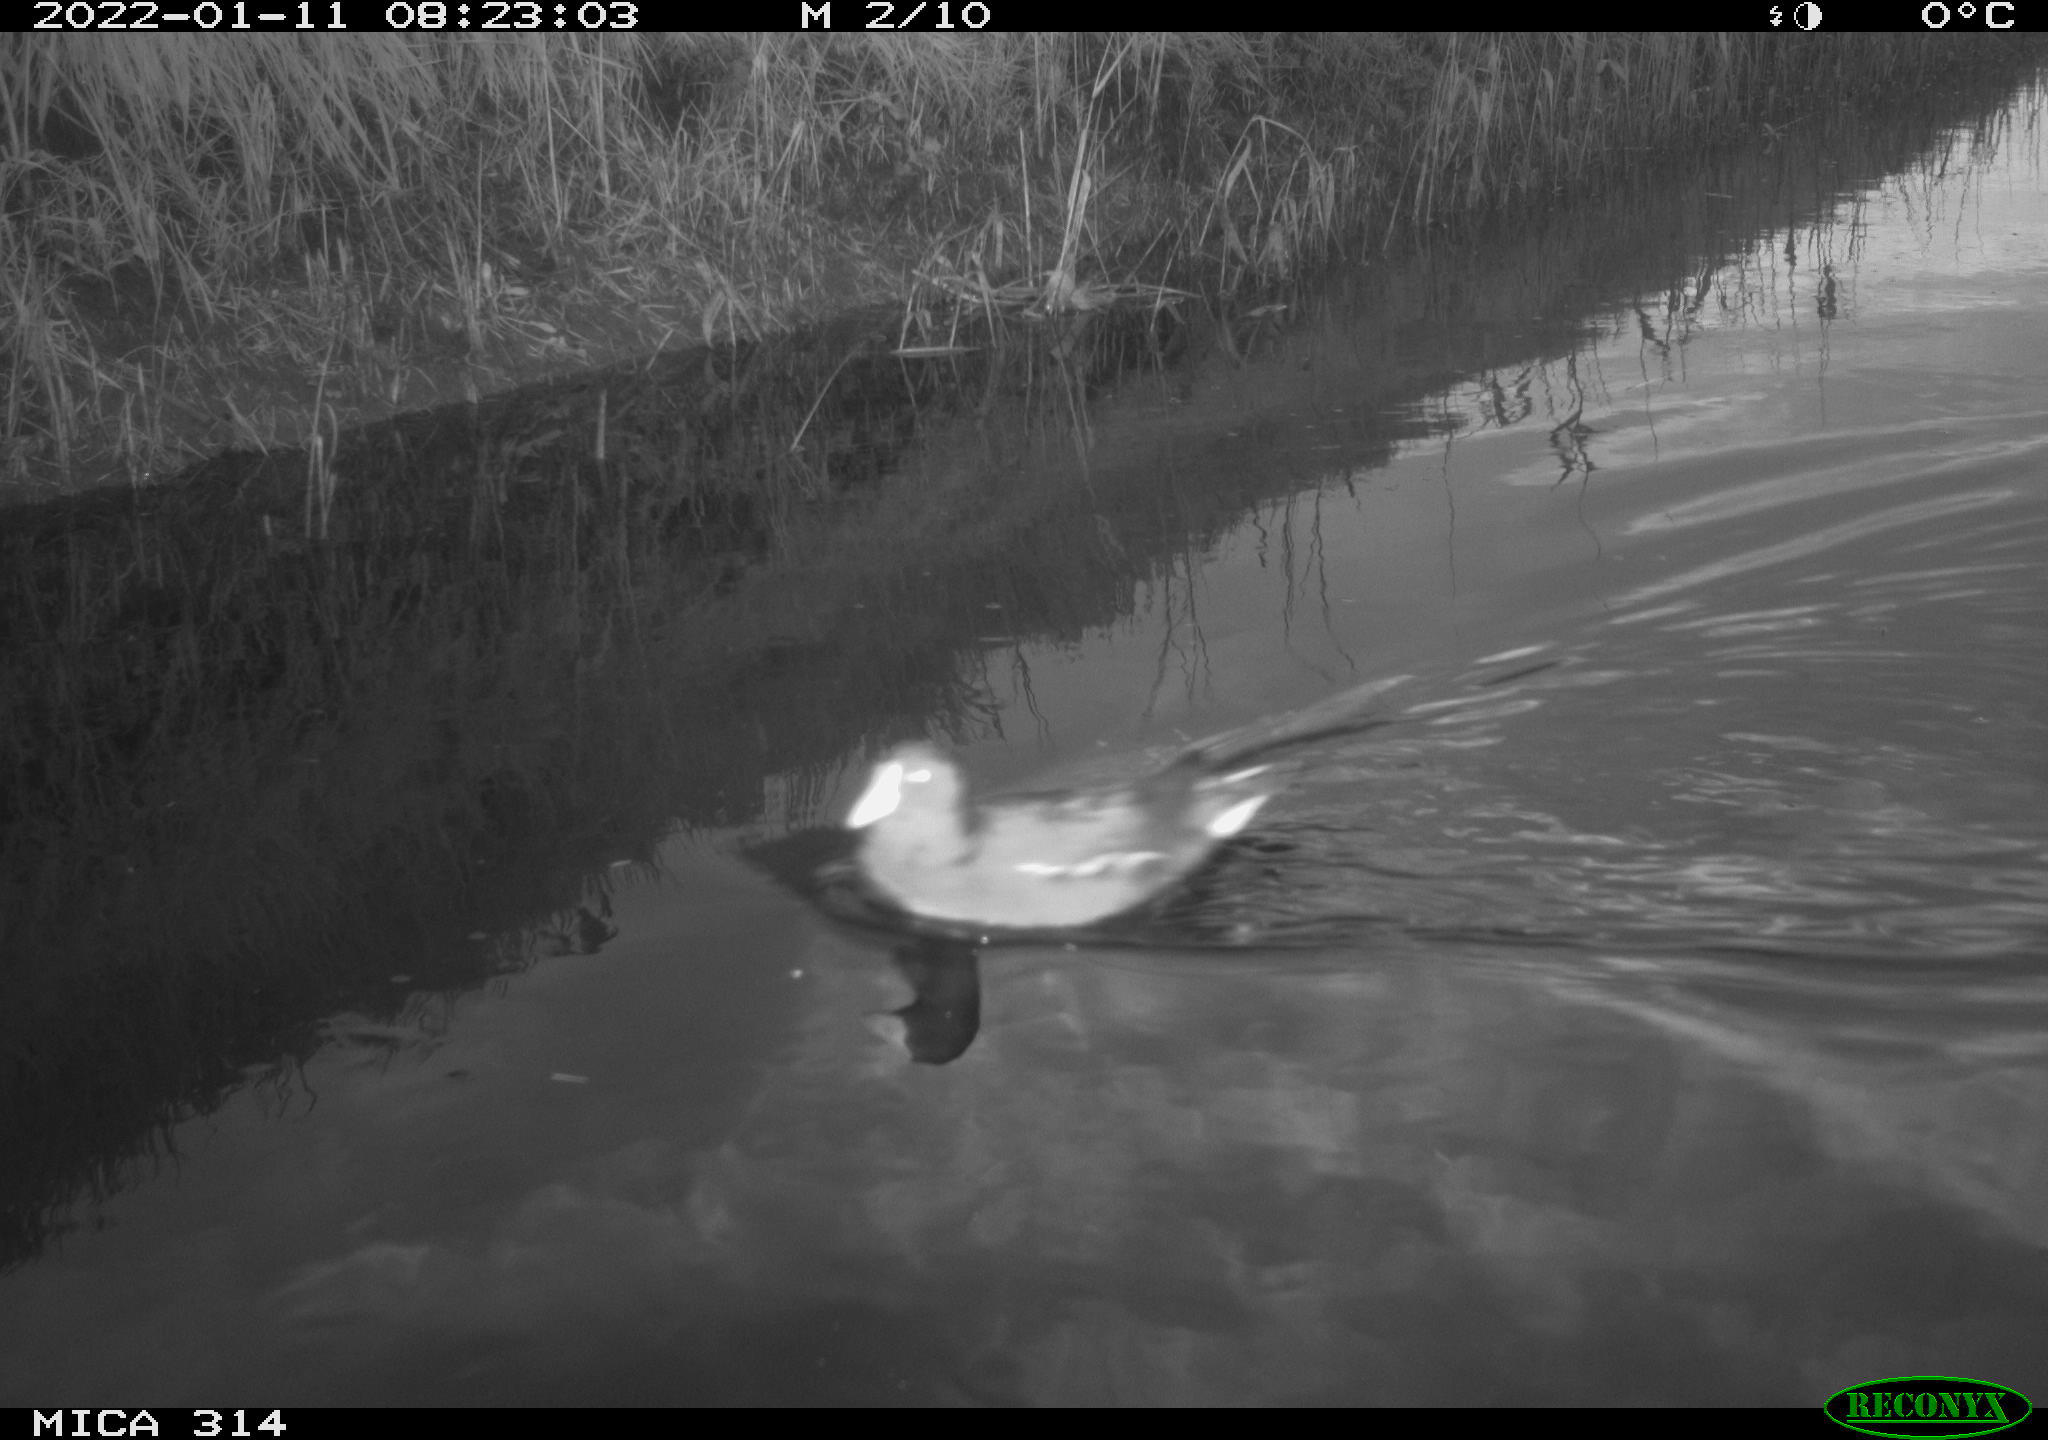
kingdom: Animalia
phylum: Chordata
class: Aves
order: Gruiformes
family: Rallidae
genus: Gallinula
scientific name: Gallinula chloropus
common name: Common moorhen
